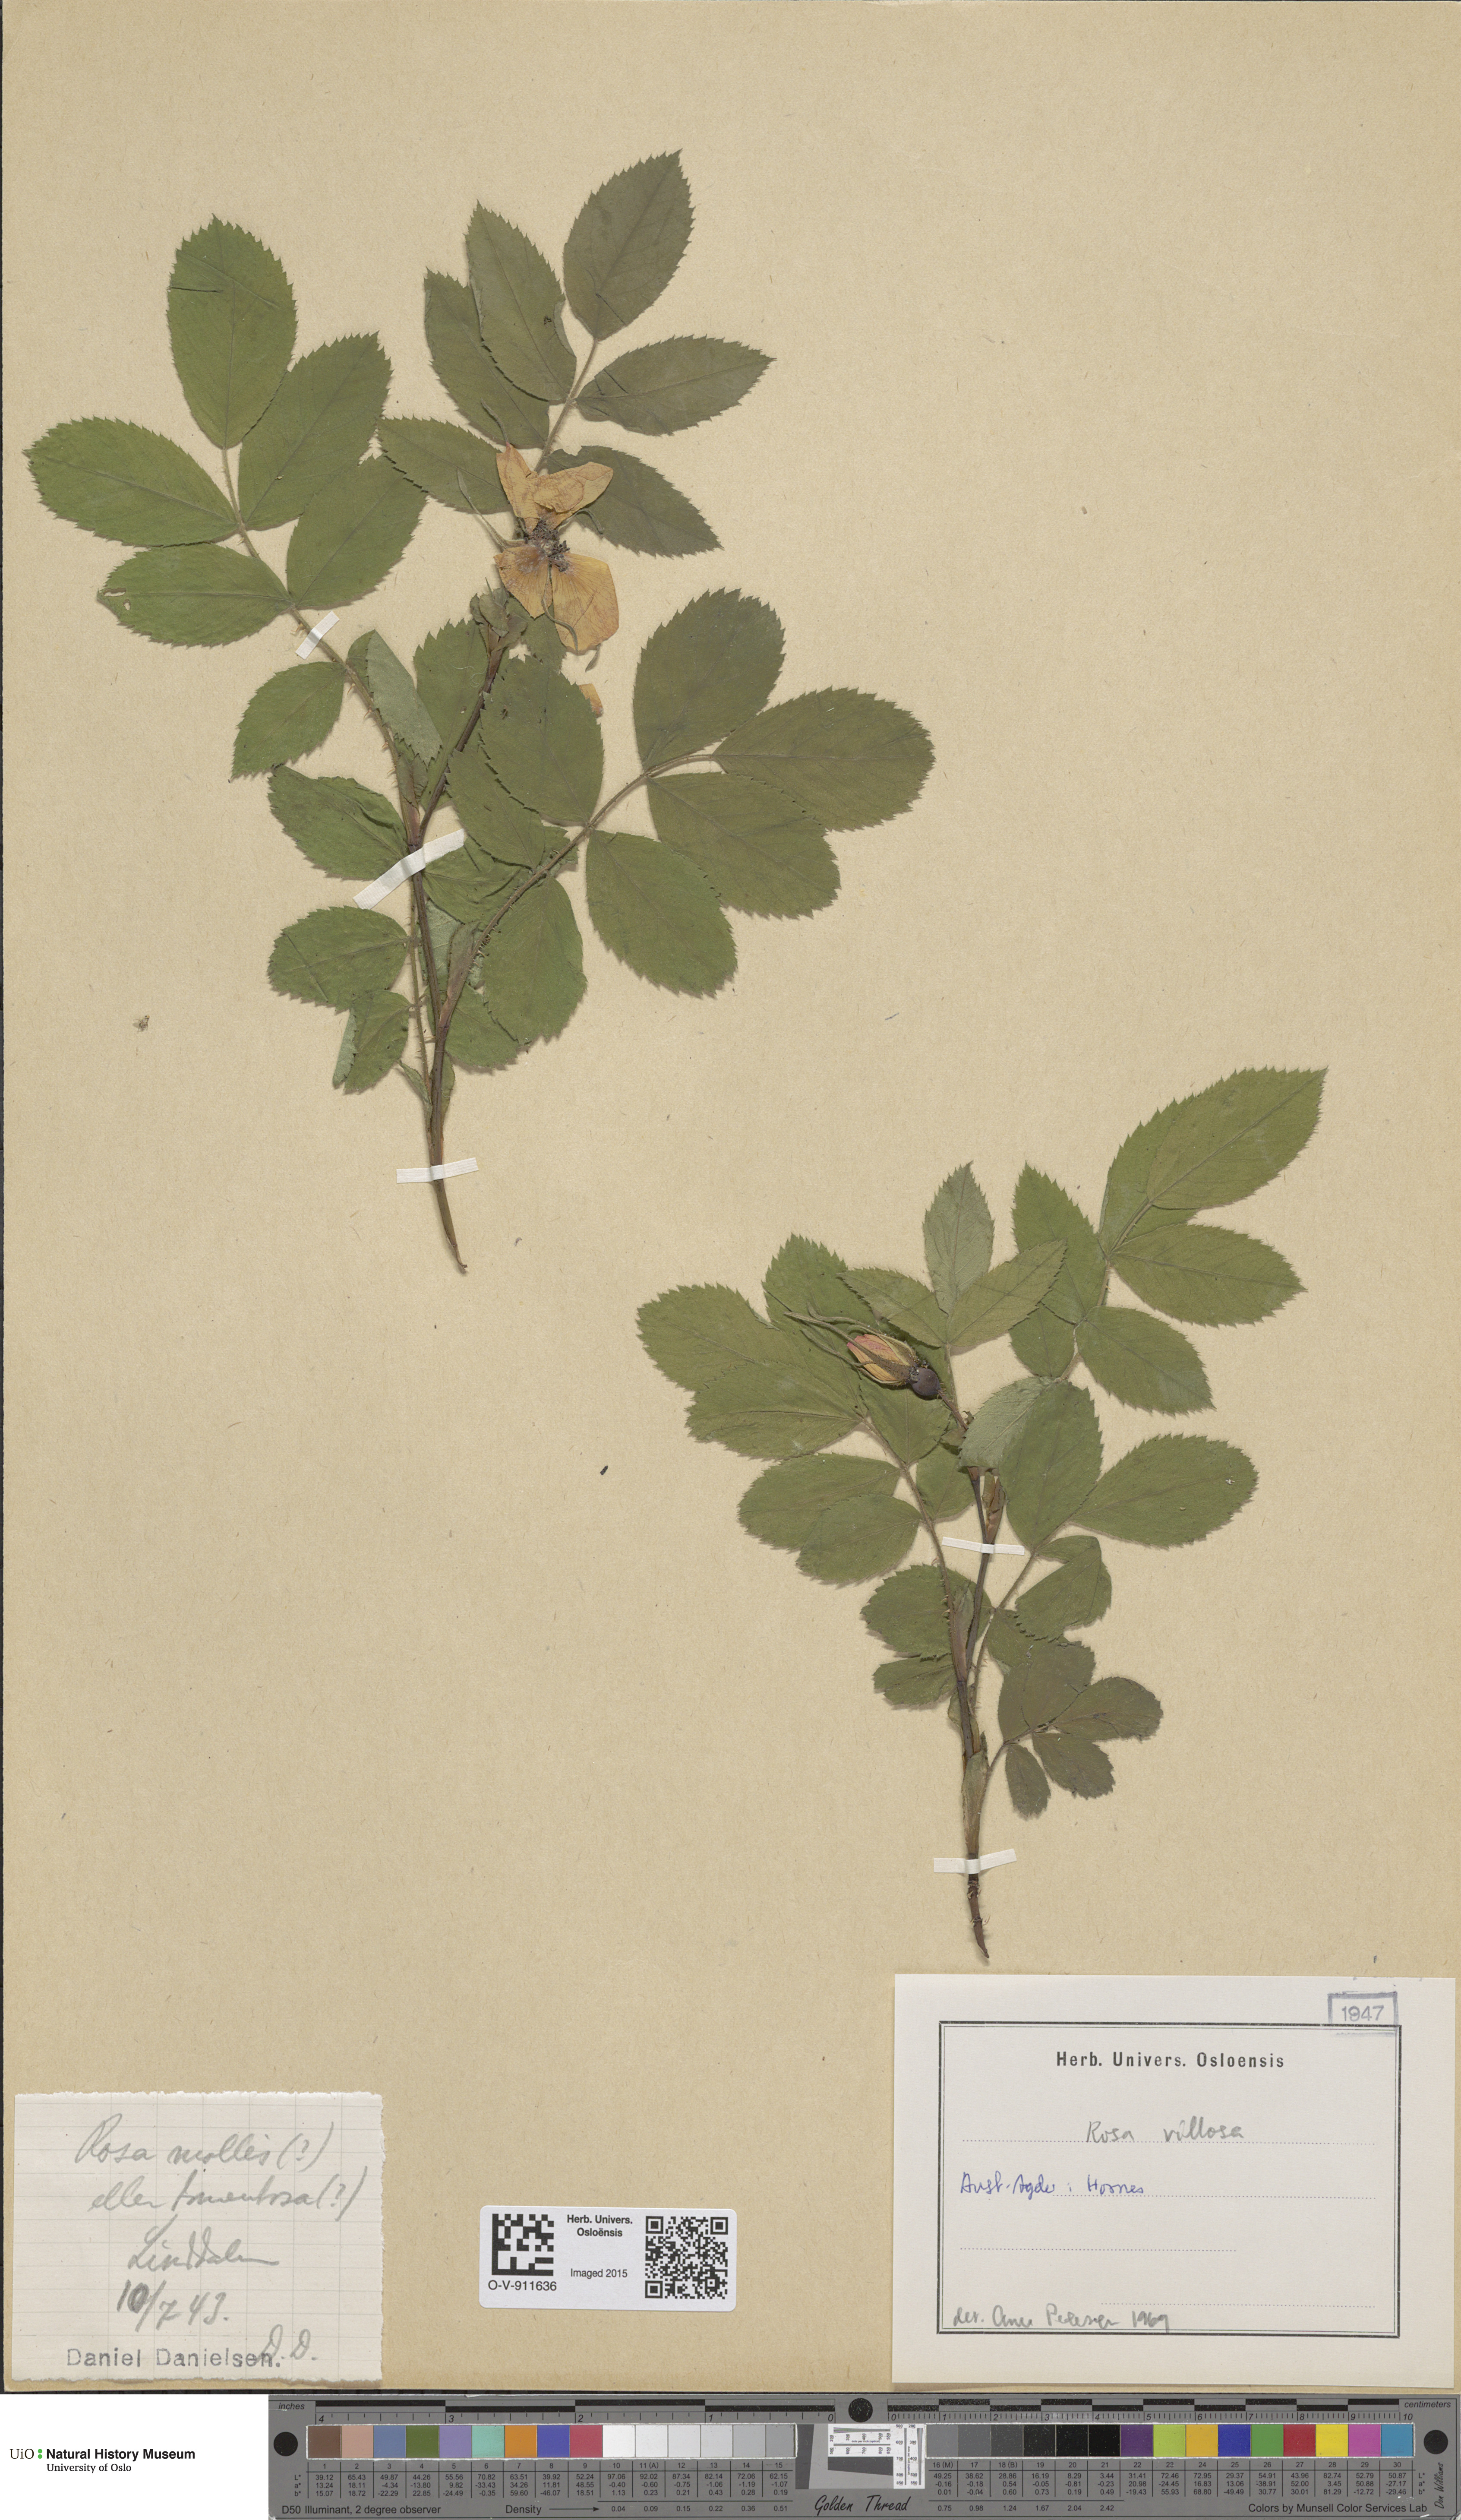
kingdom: Plantae
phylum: Tracheophyta
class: Magnoliopsida
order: Rosales
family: Rosaceae
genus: Rosa
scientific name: Rosa villosa
